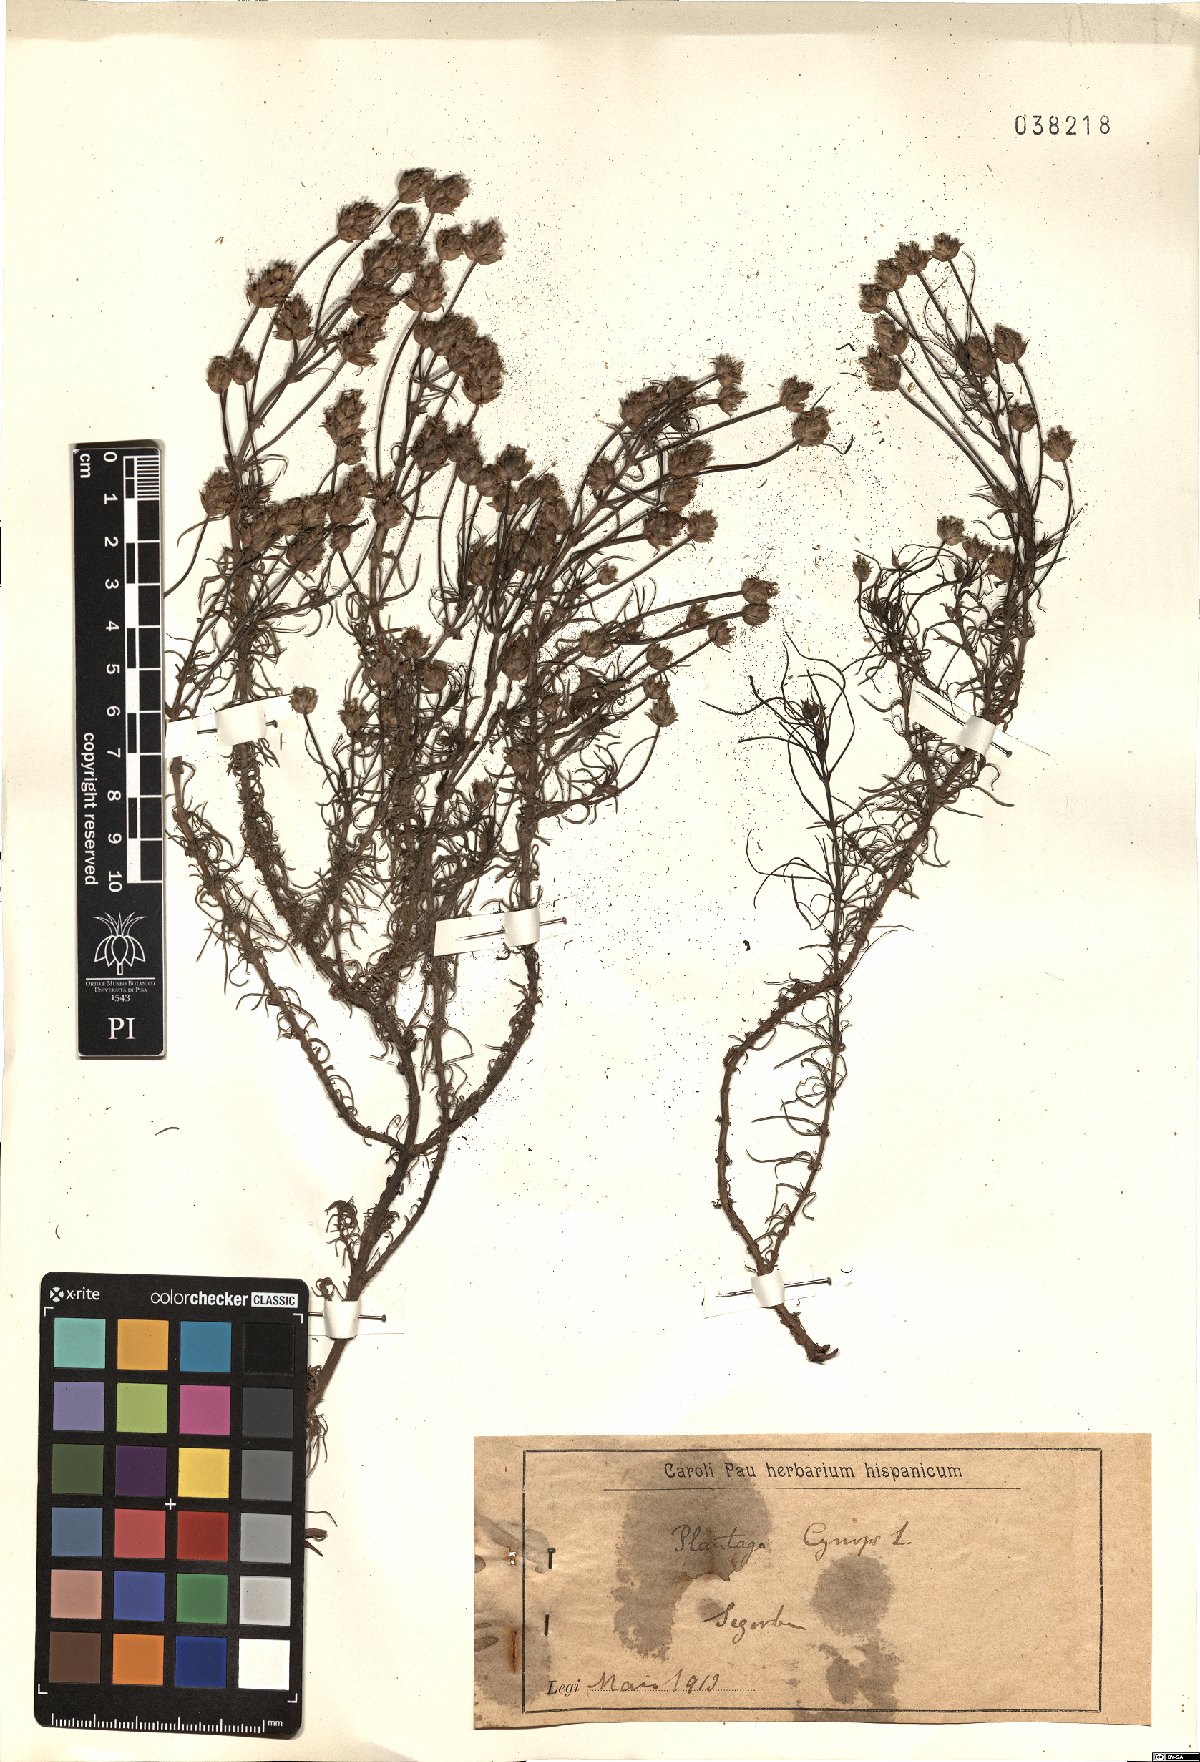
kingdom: Plantae
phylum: Tracheophyta
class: Magnoliopsida
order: Lamiales
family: Plantaginaceae
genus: Plantago
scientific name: Plantago sempervirens
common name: Shrubby plantain
